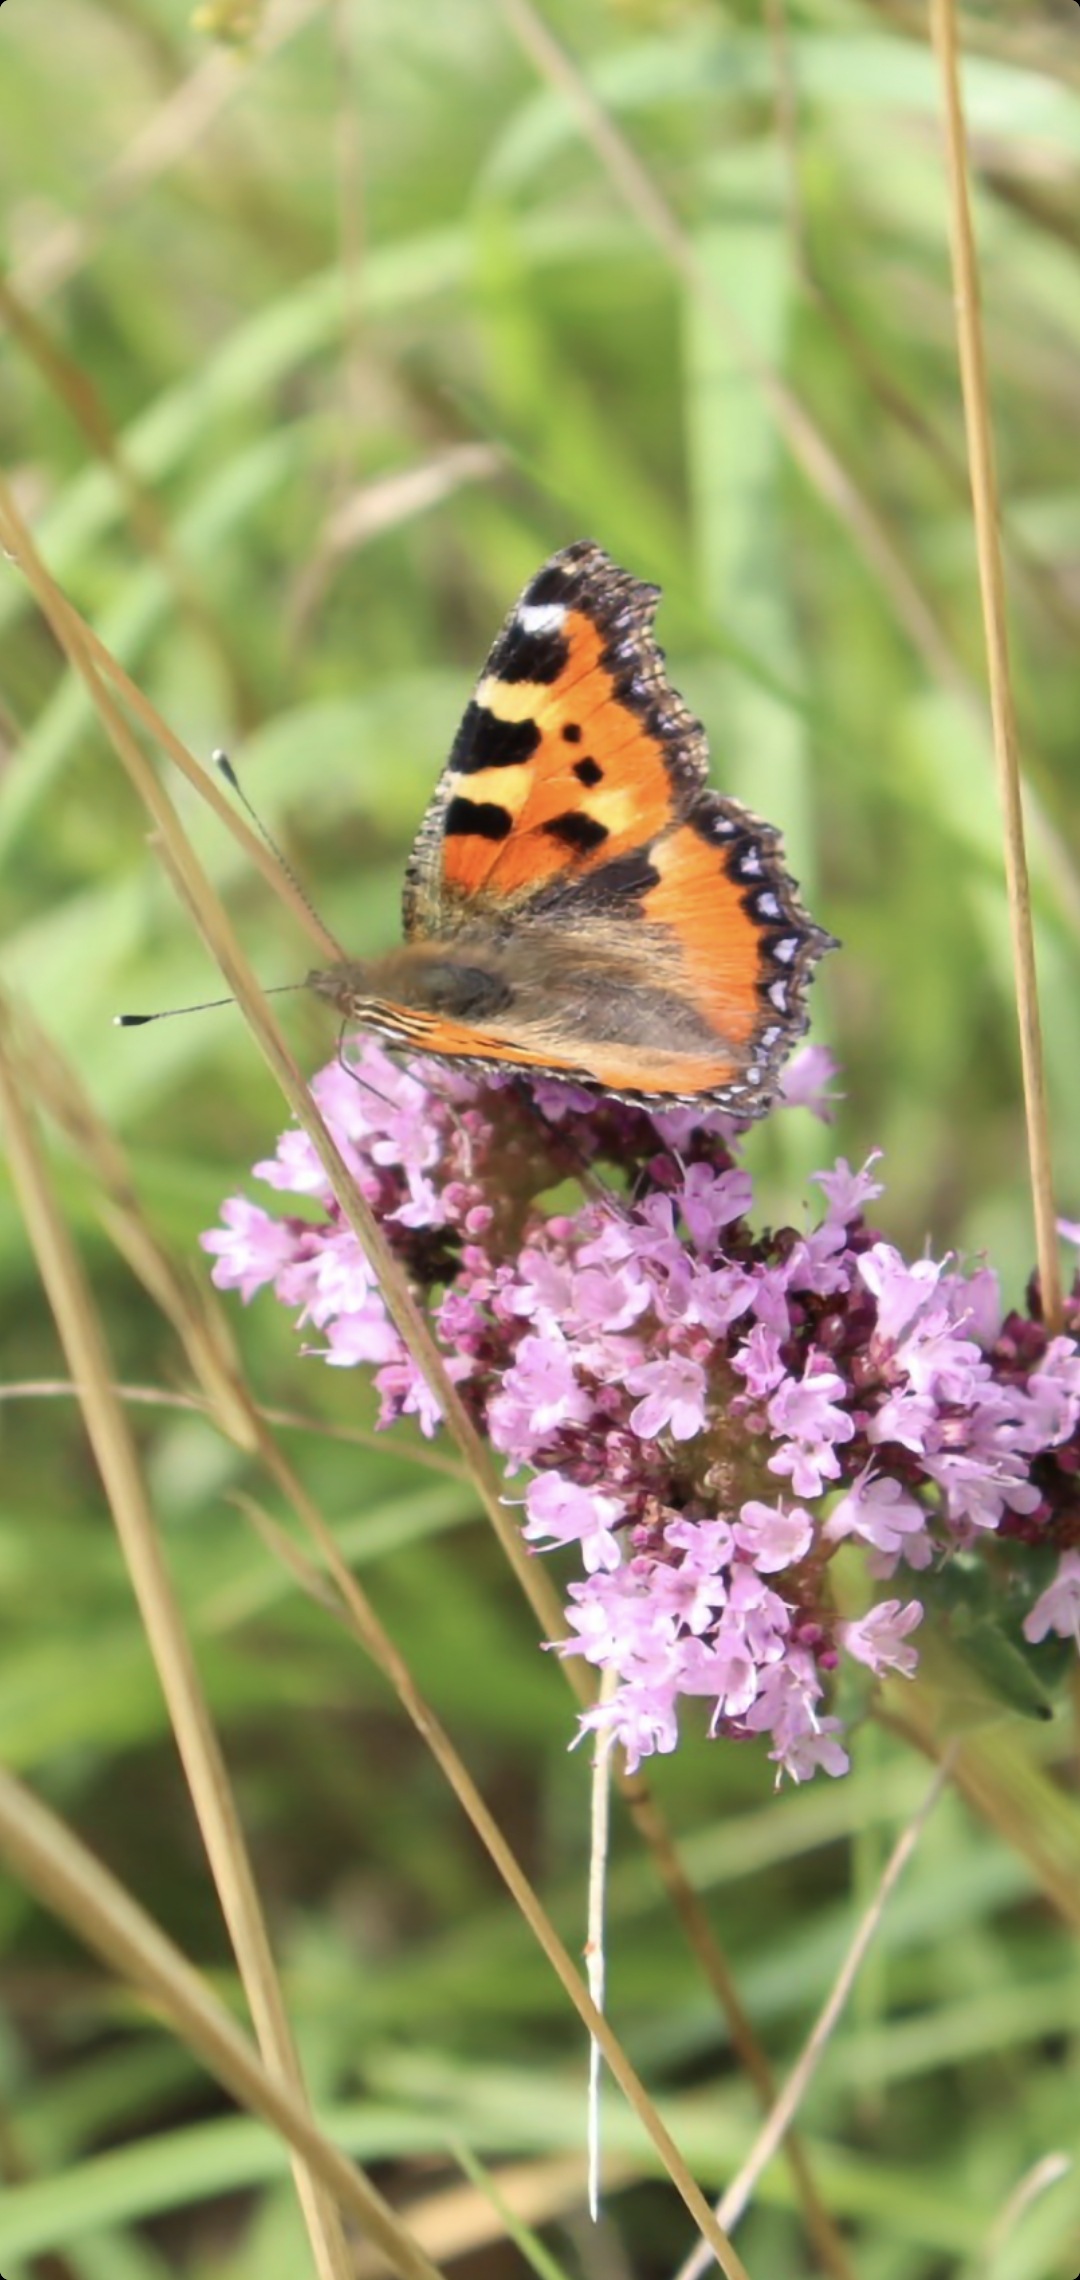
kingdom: Animalia
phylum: Arthropoda
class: Insecta
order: Lepidoptera
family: Nymphalidae
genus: Aglais
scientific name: Aglais urticae
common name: Nældens takvinge
